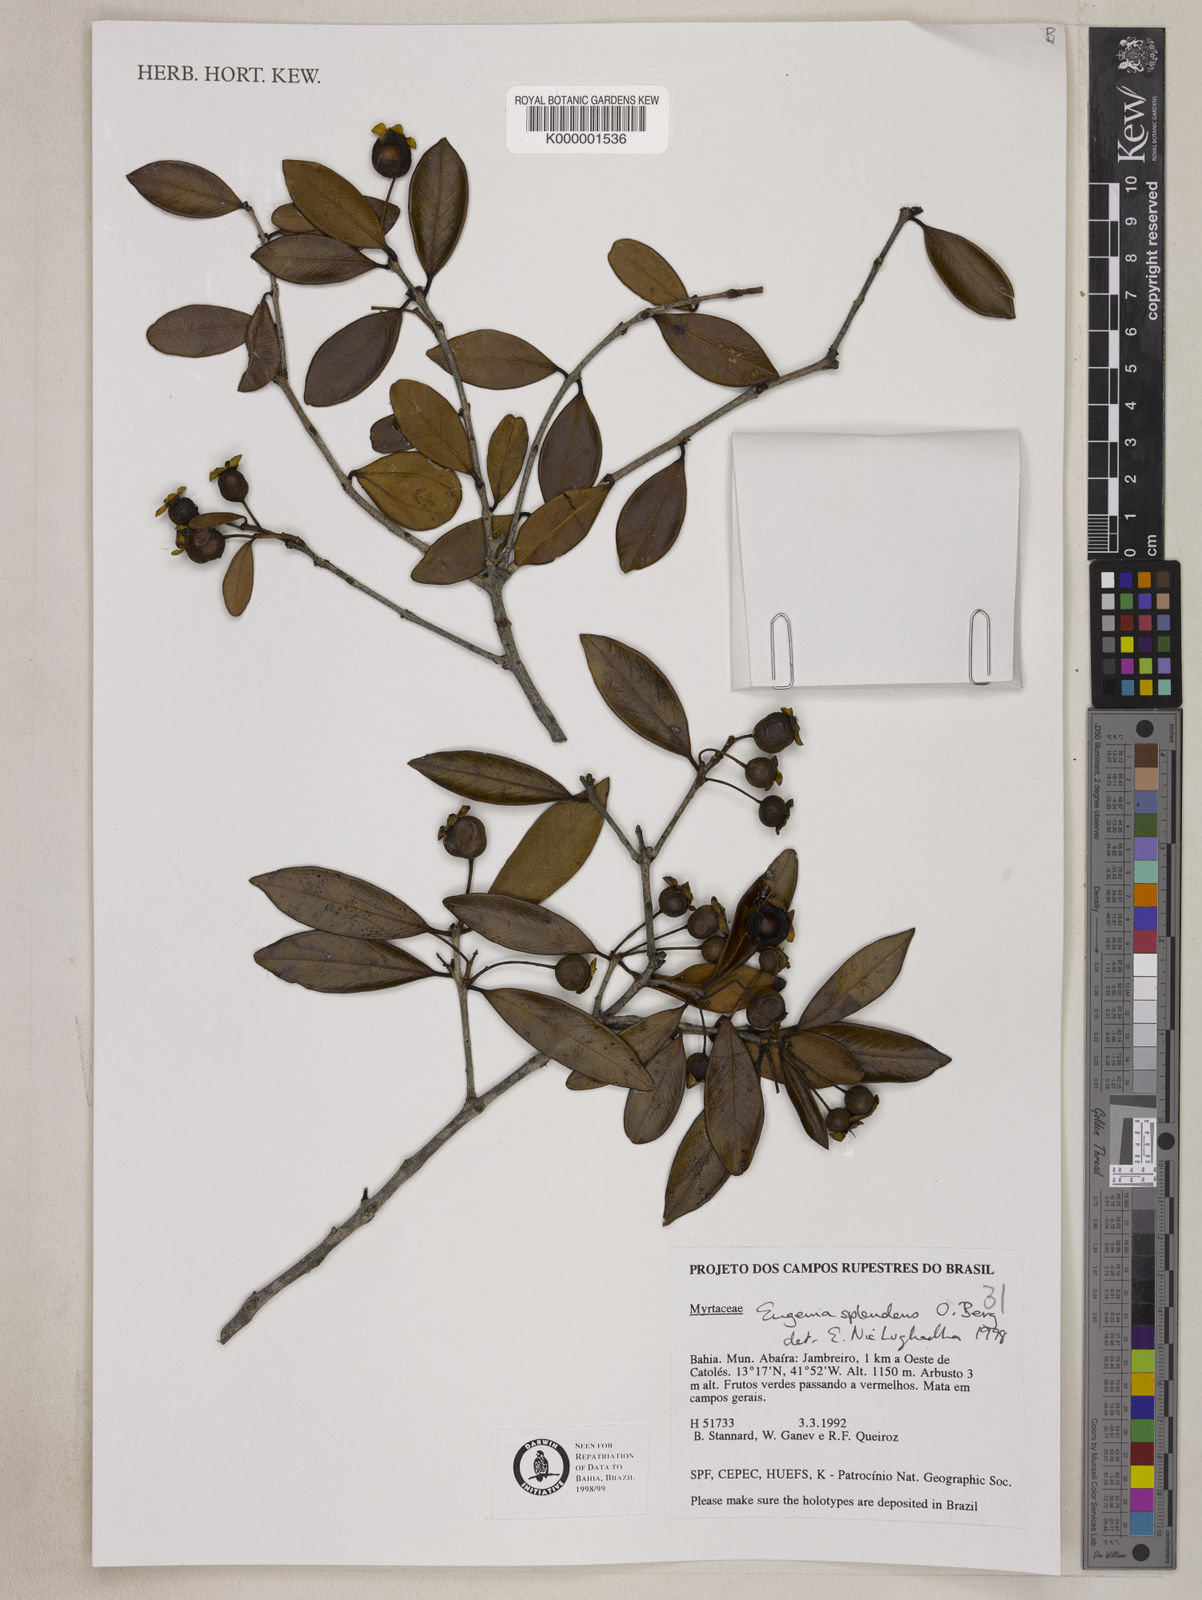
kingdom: Plantae
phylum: Tracheophyta
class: Magnoliopsida
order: Myrtales
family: Myrtaceae
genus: Eugenia
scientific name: Eugenia splendens
